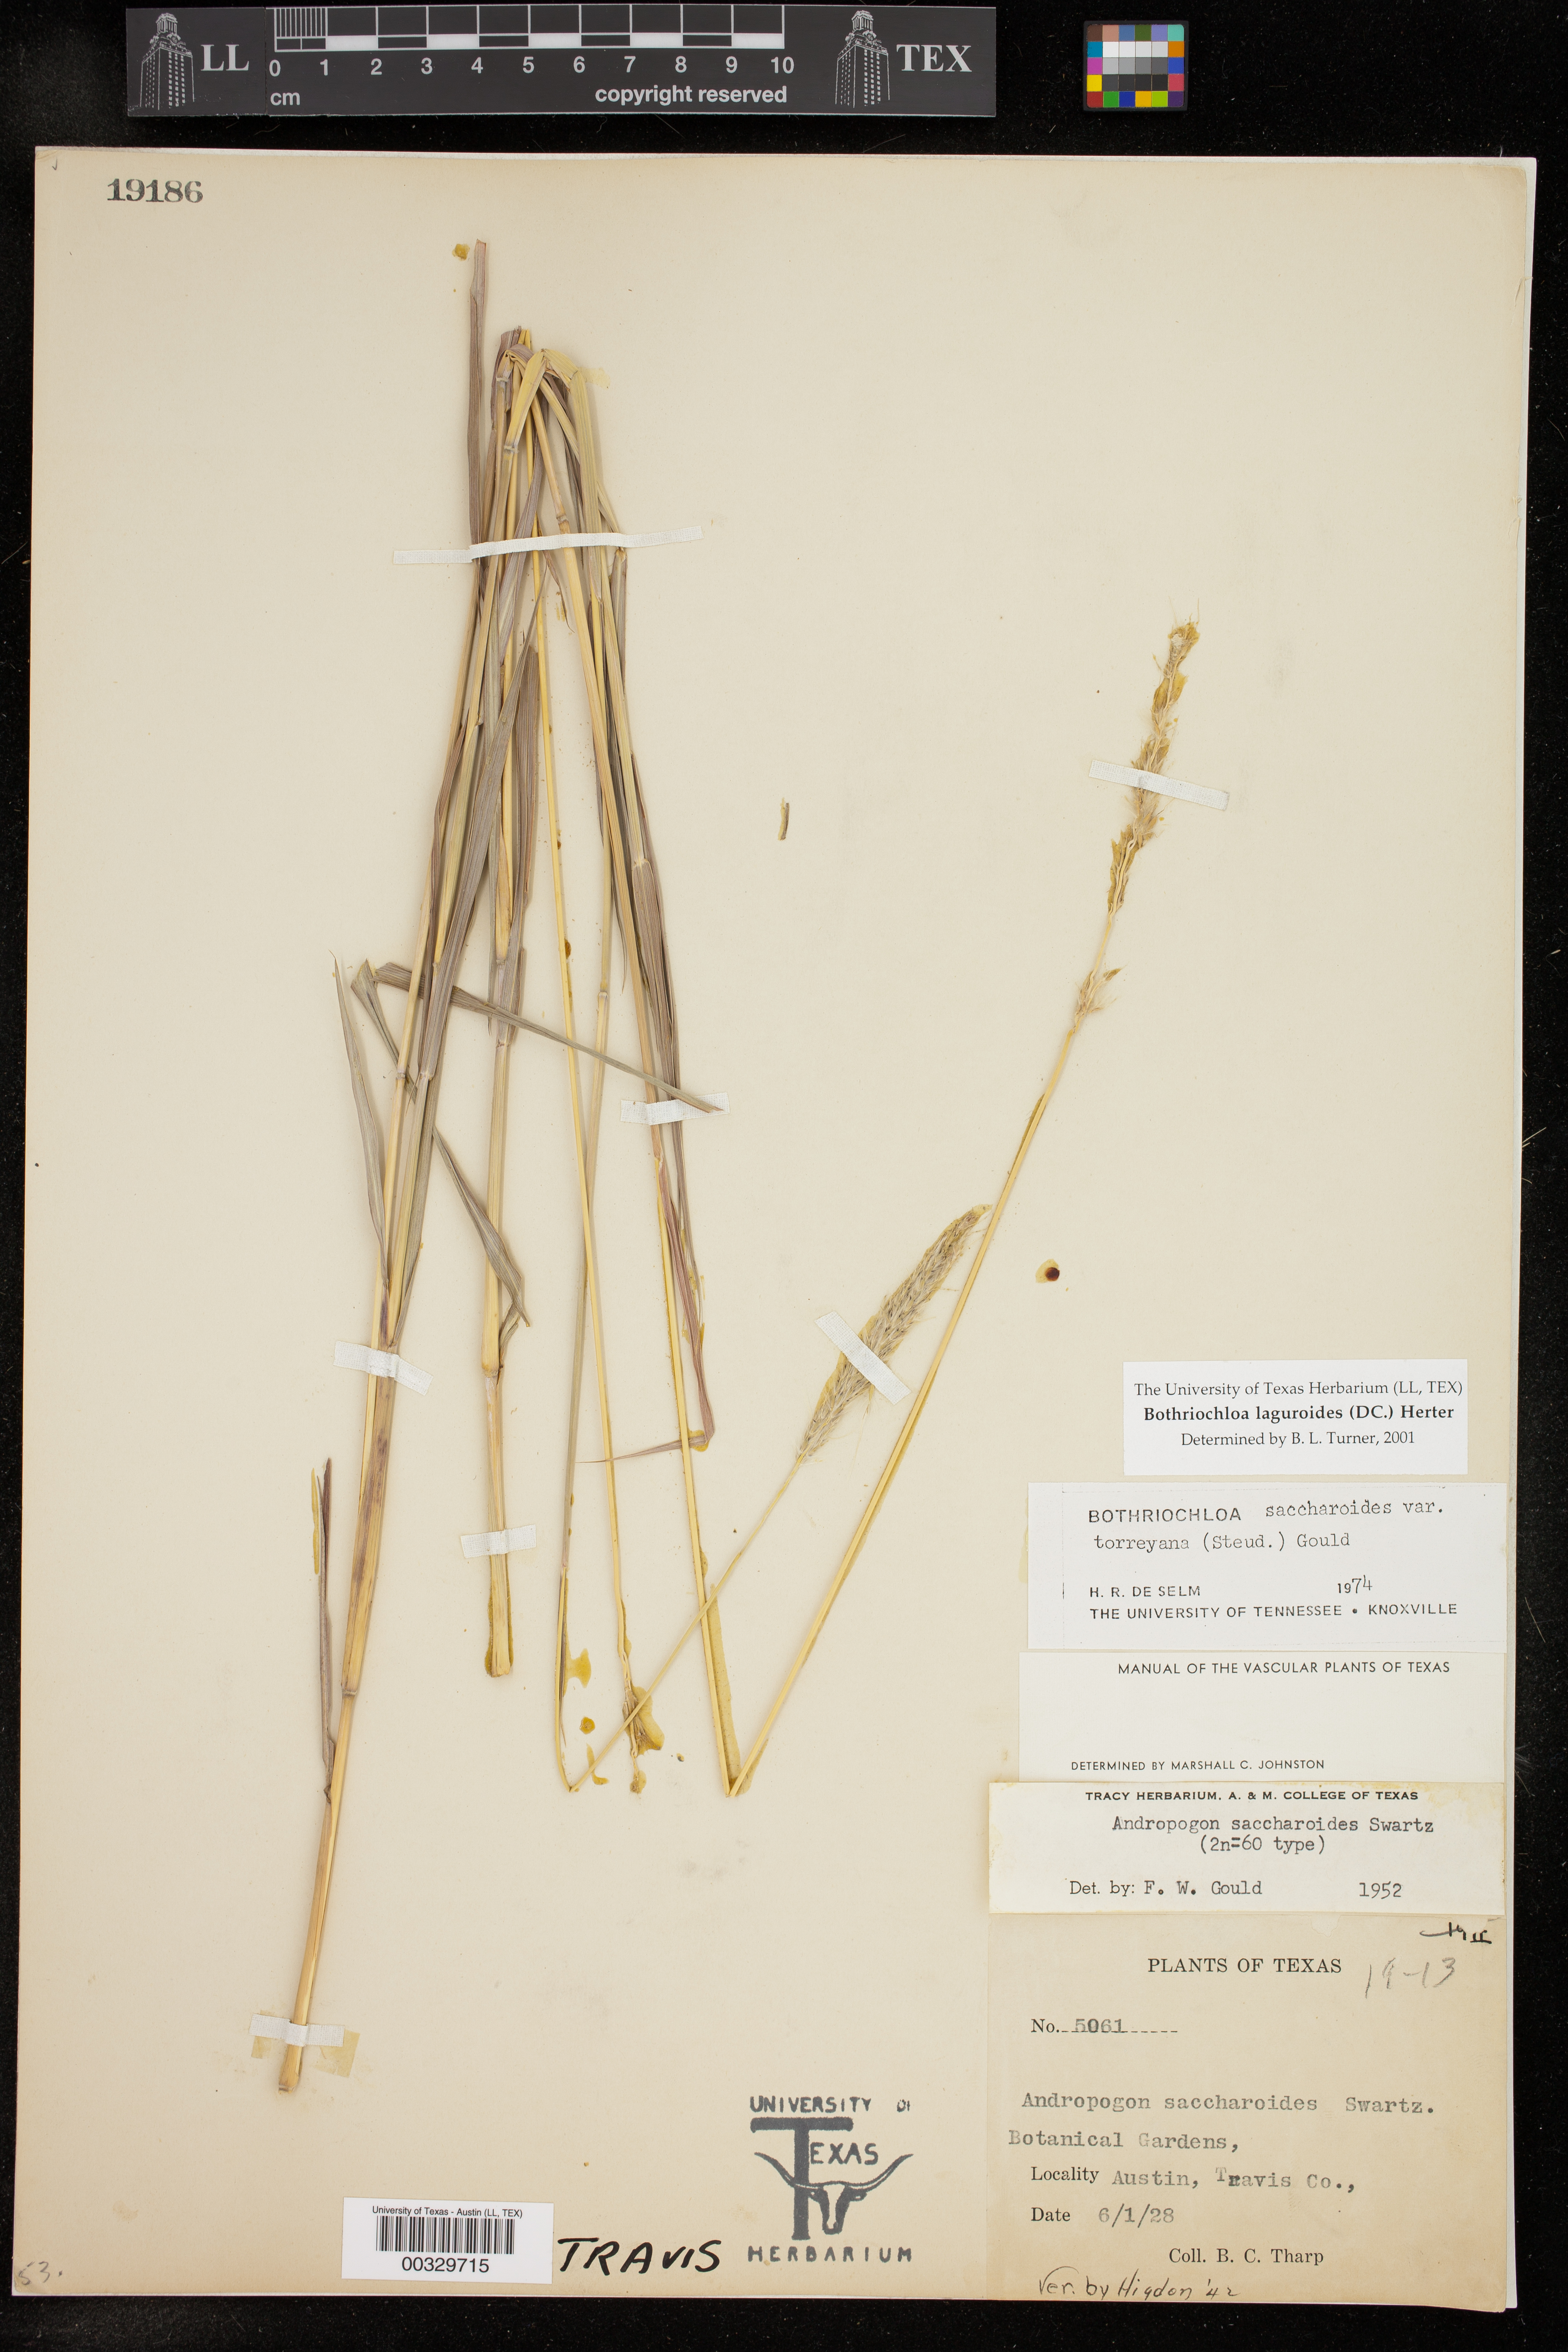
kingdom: Plantae
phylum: Tracheophyta
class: Liliopsida
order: Poales
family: Poaceae
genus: Bothriochloa
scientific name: Bothriochloa laguroides
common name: Silver bluestem
